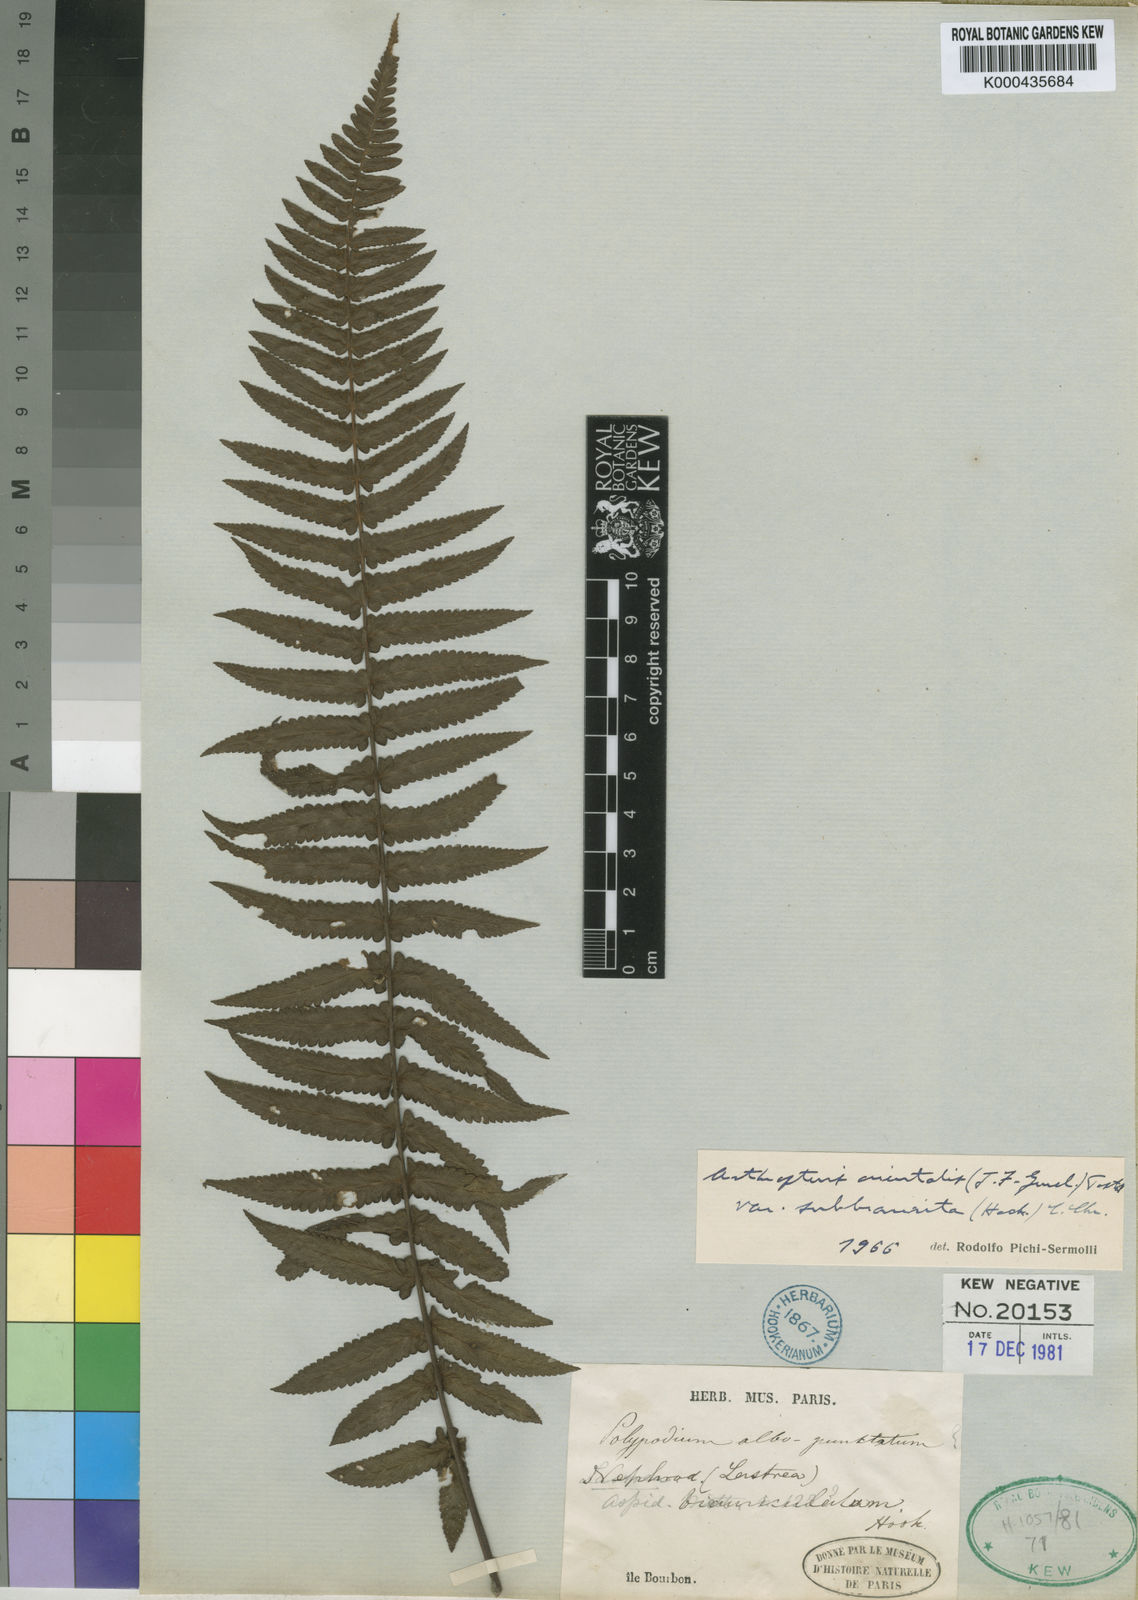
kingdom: Plantae
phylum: Tracheophyta
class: Polypodiopsida
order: Polypodiales
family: Tectariaceae
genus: Arthropteris
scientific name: Arthropteris orientalis
